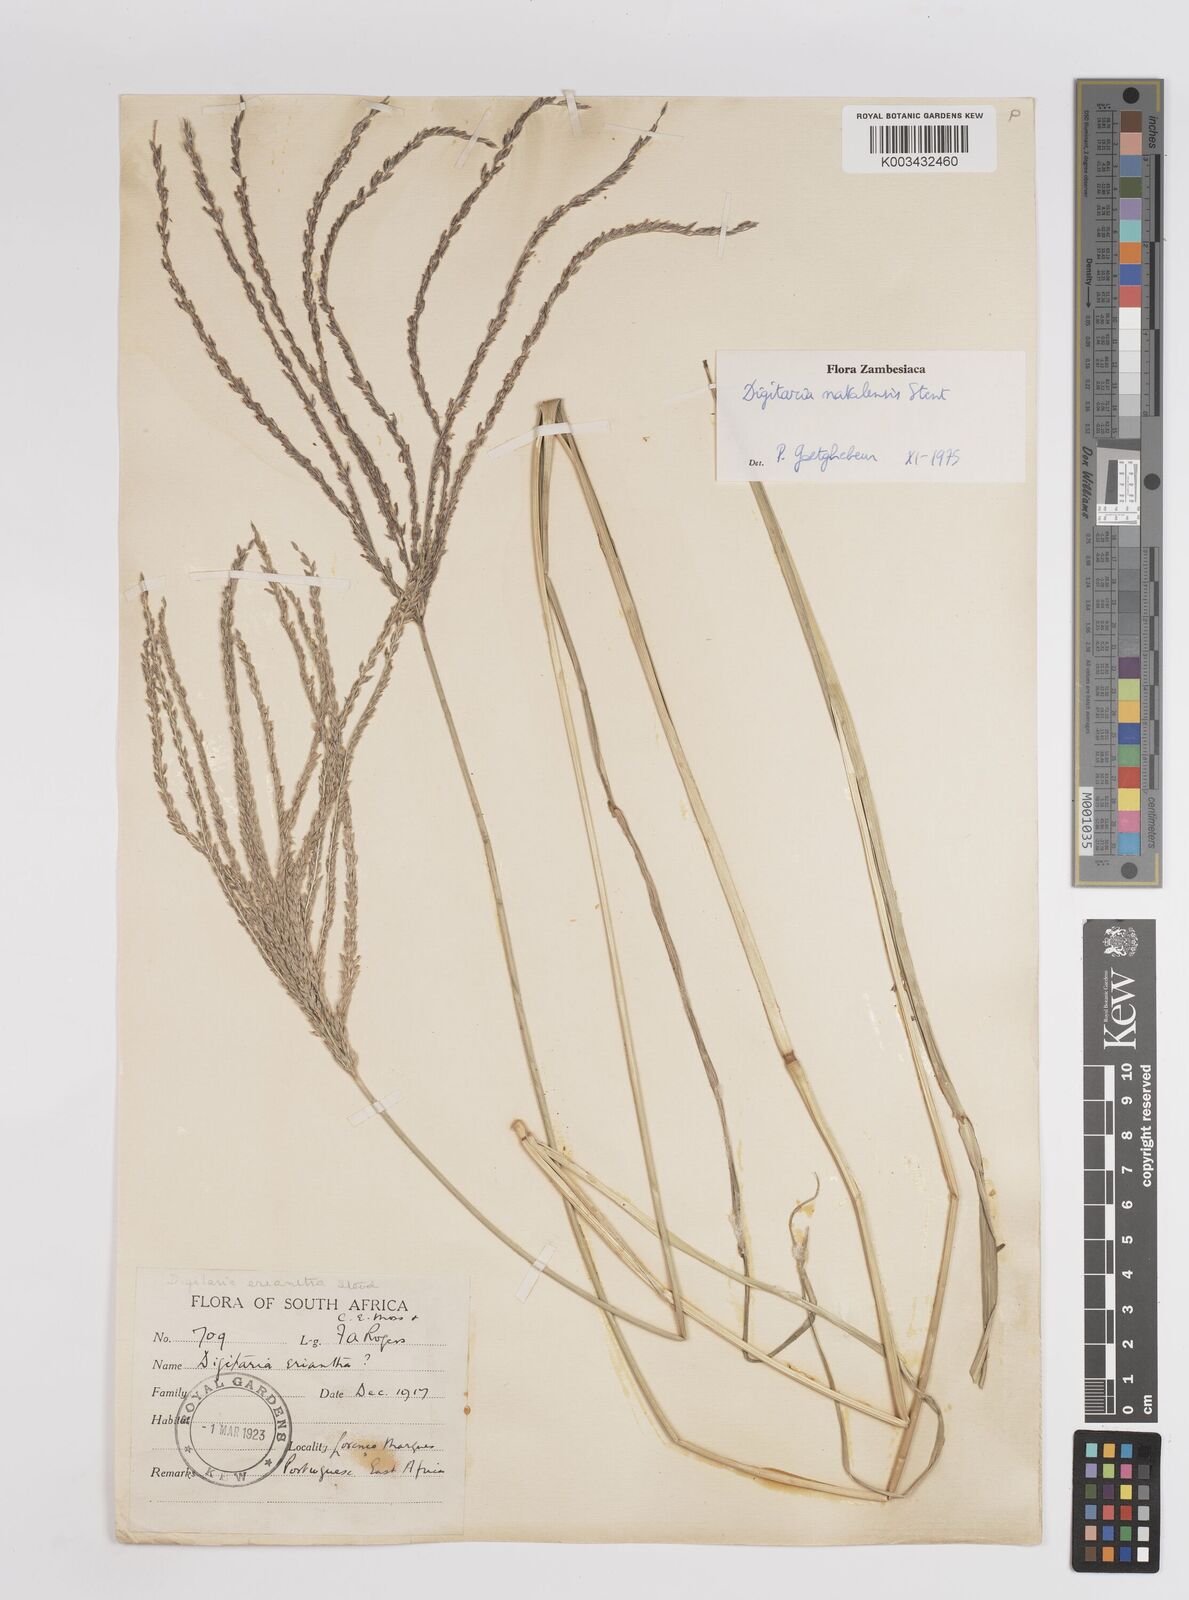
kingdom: Plantae
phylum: Tracheophyta
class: Liliopsida
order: Poales
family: Poaceae
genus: Digitaria
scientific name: Digitaria natalensis
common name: Coast finger grass
